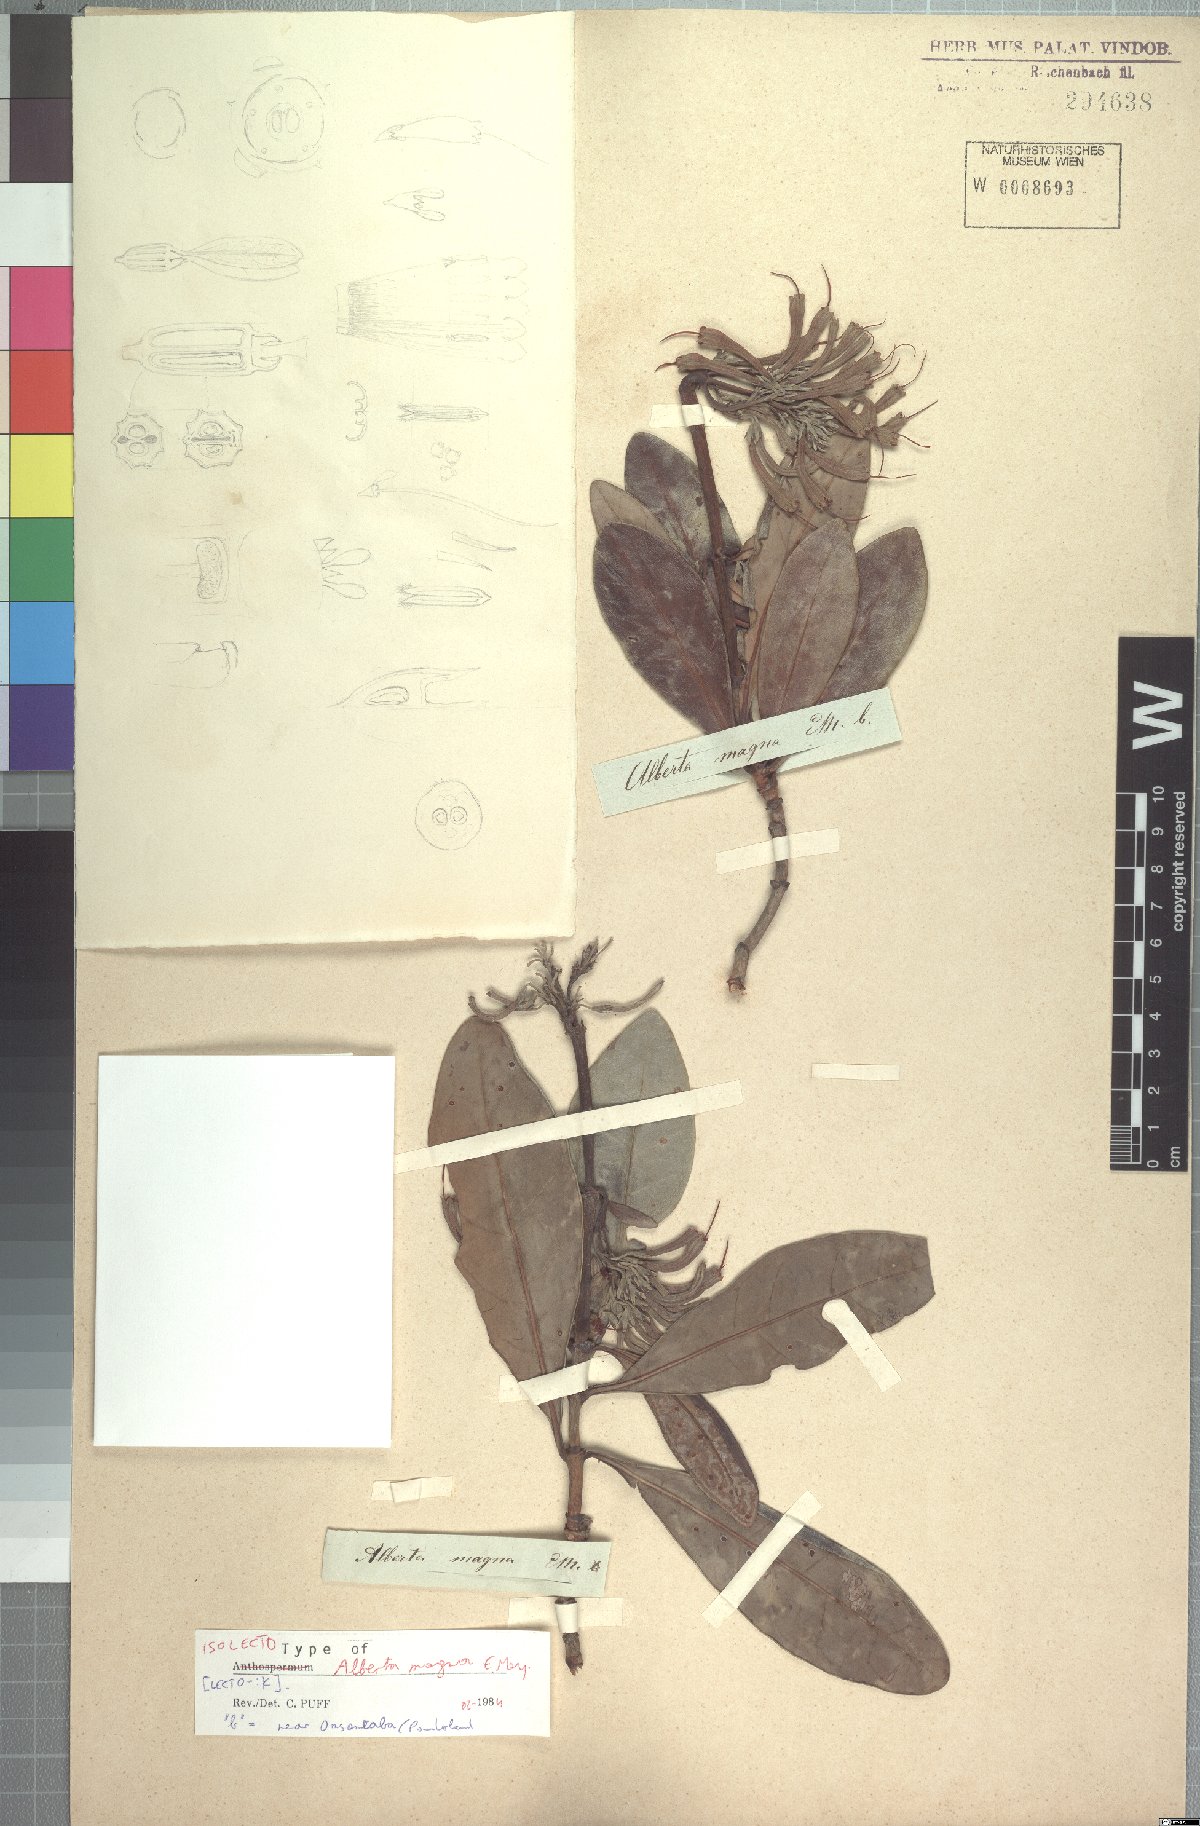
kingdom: Plantae
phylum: Tracheophyta
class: Magnoliopsida
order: Gentianales
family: Rubiaceae
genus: Alberta
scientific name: Alberta magna
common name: Magnificent-flame
